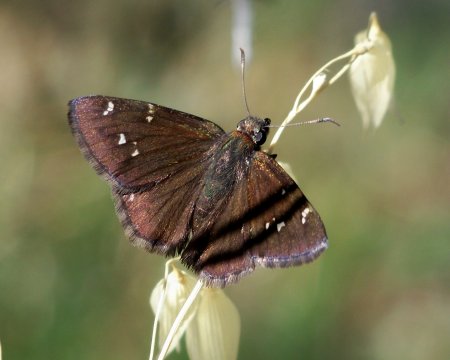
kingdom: Animalia
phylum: Arthropoda
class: Insecta
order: Lepidoptera
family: Hesperiidae
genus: Autochton
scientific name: Autochton
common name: Northern Cloudywing
